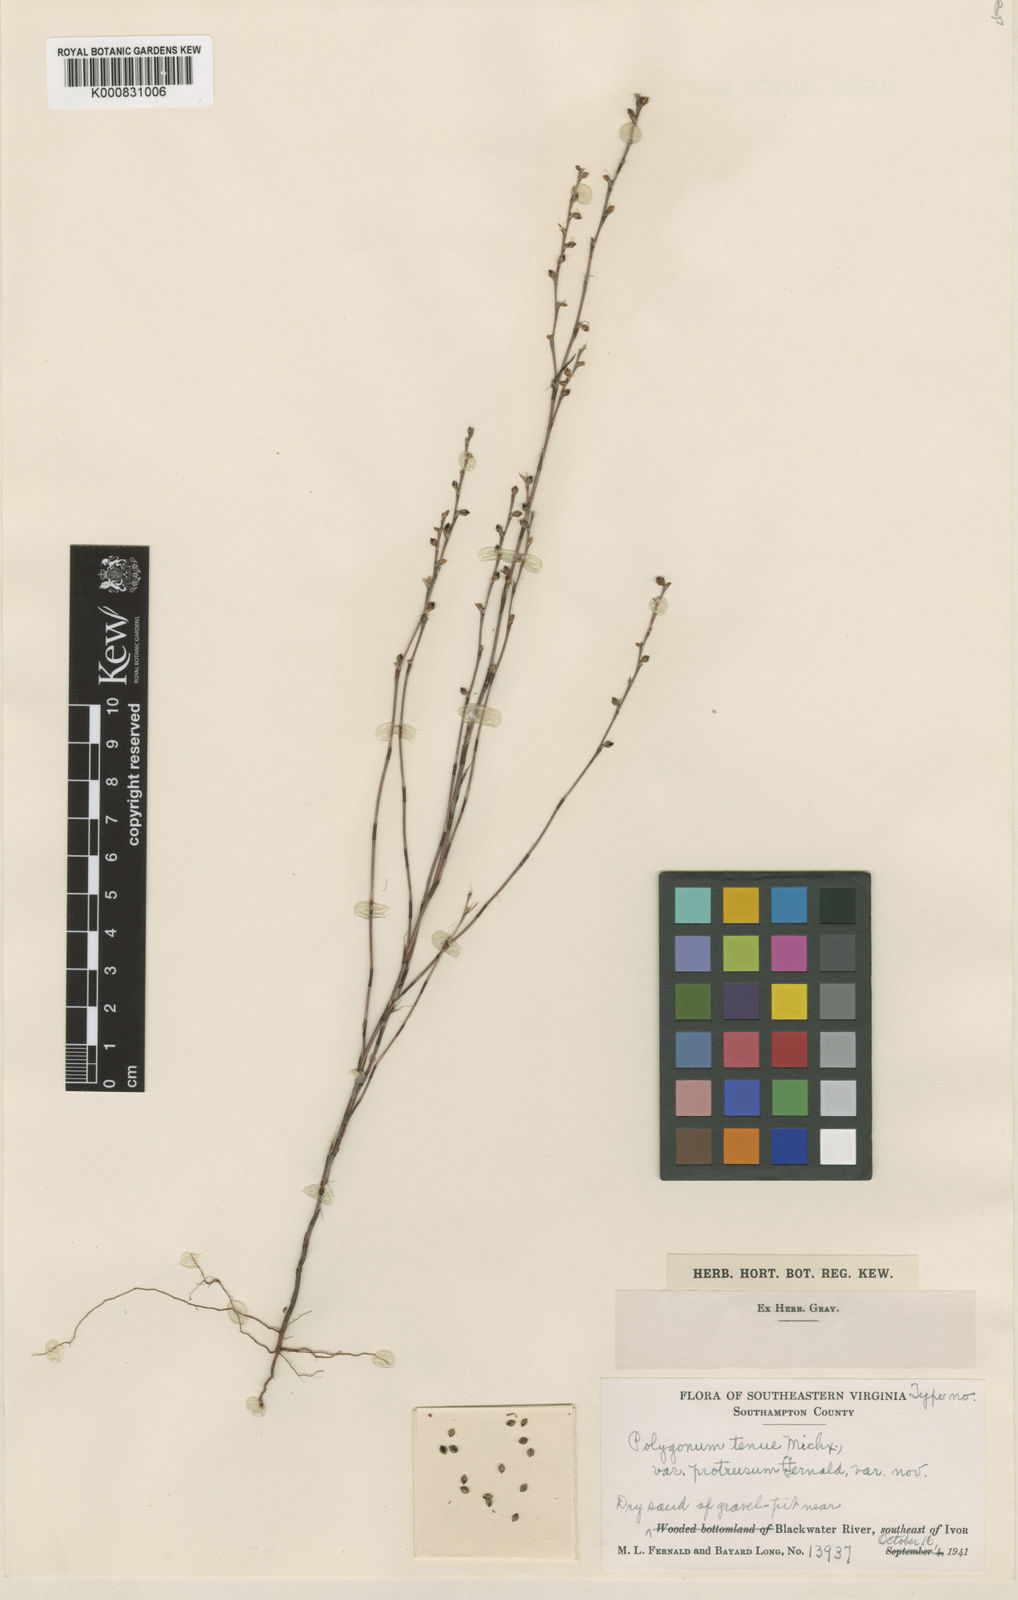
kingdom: Plantae
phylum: Tracheophyta
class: Magnoliopsida
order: Caryophyllales
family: Polygonaceae
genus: Polygonum
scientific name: Polygonum tenue
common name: Pleat-leaved knotweed
